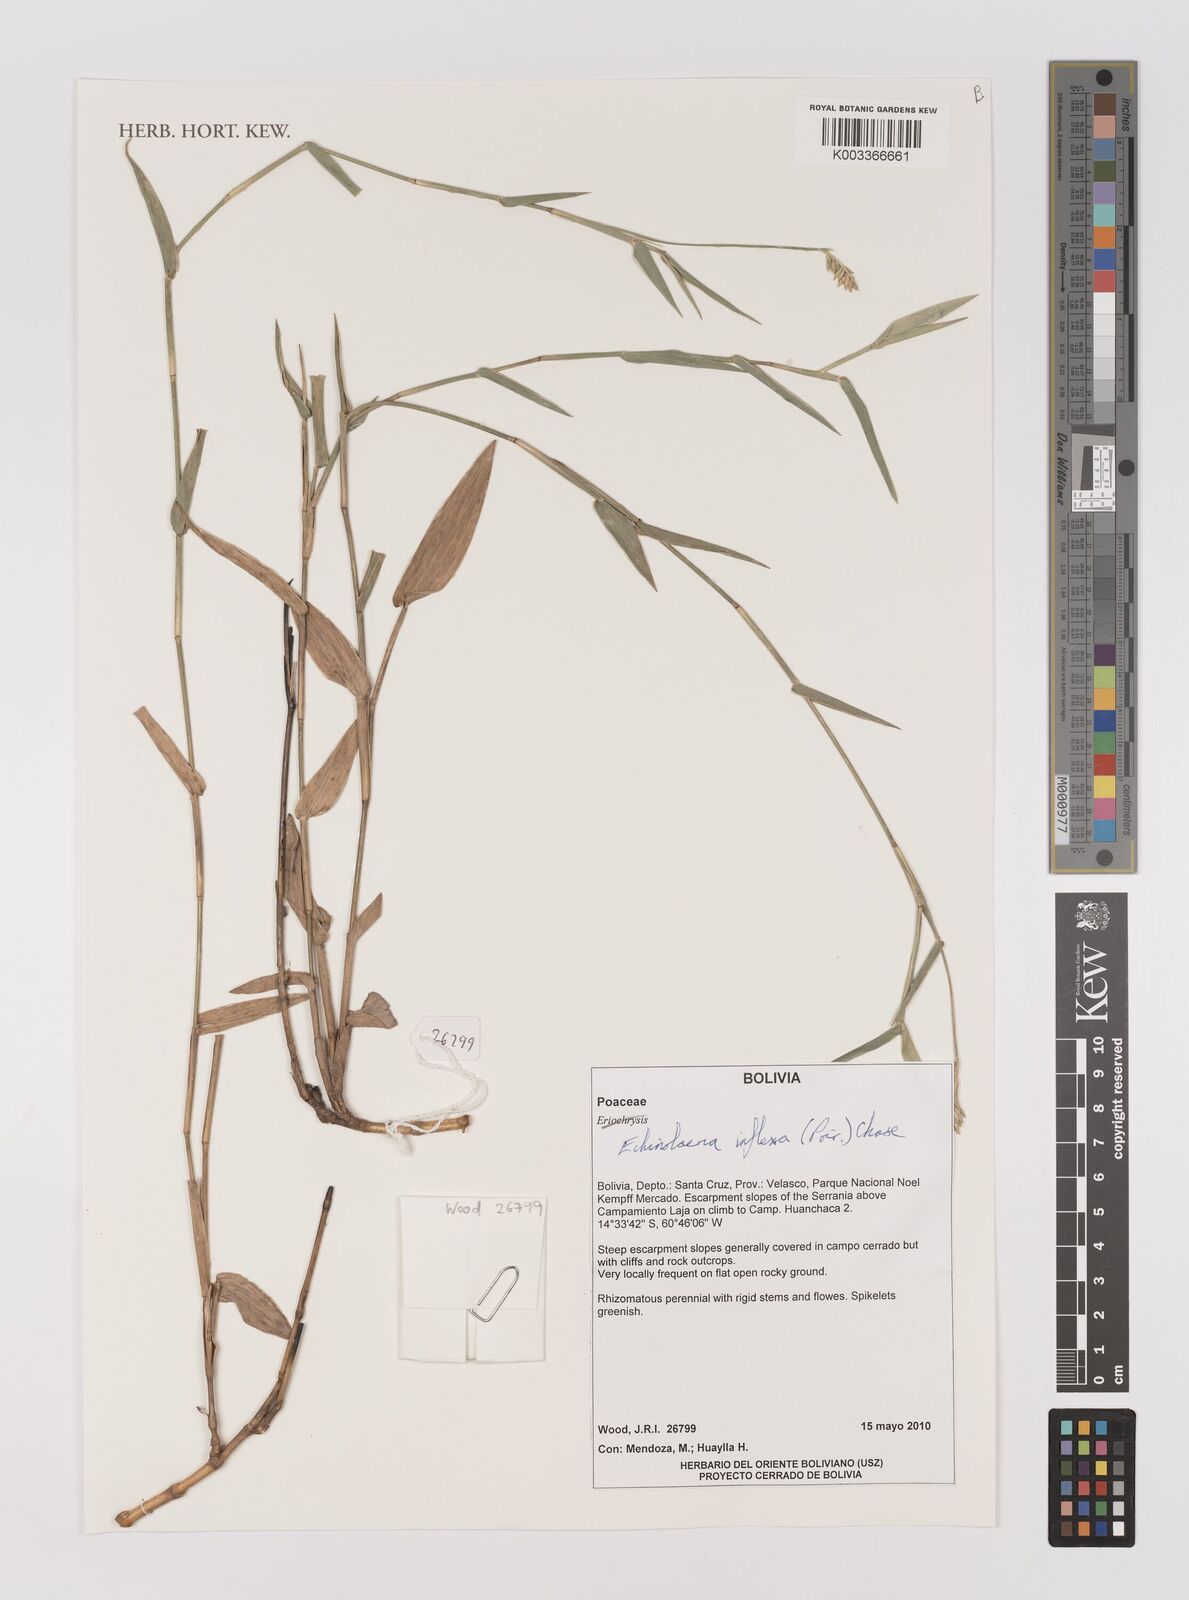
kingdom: Plantae
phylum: Tracheophyta
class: Liliopsida
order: Poales
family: Poaceae
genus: Echinolaena
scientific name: Echinolaena inflexa
